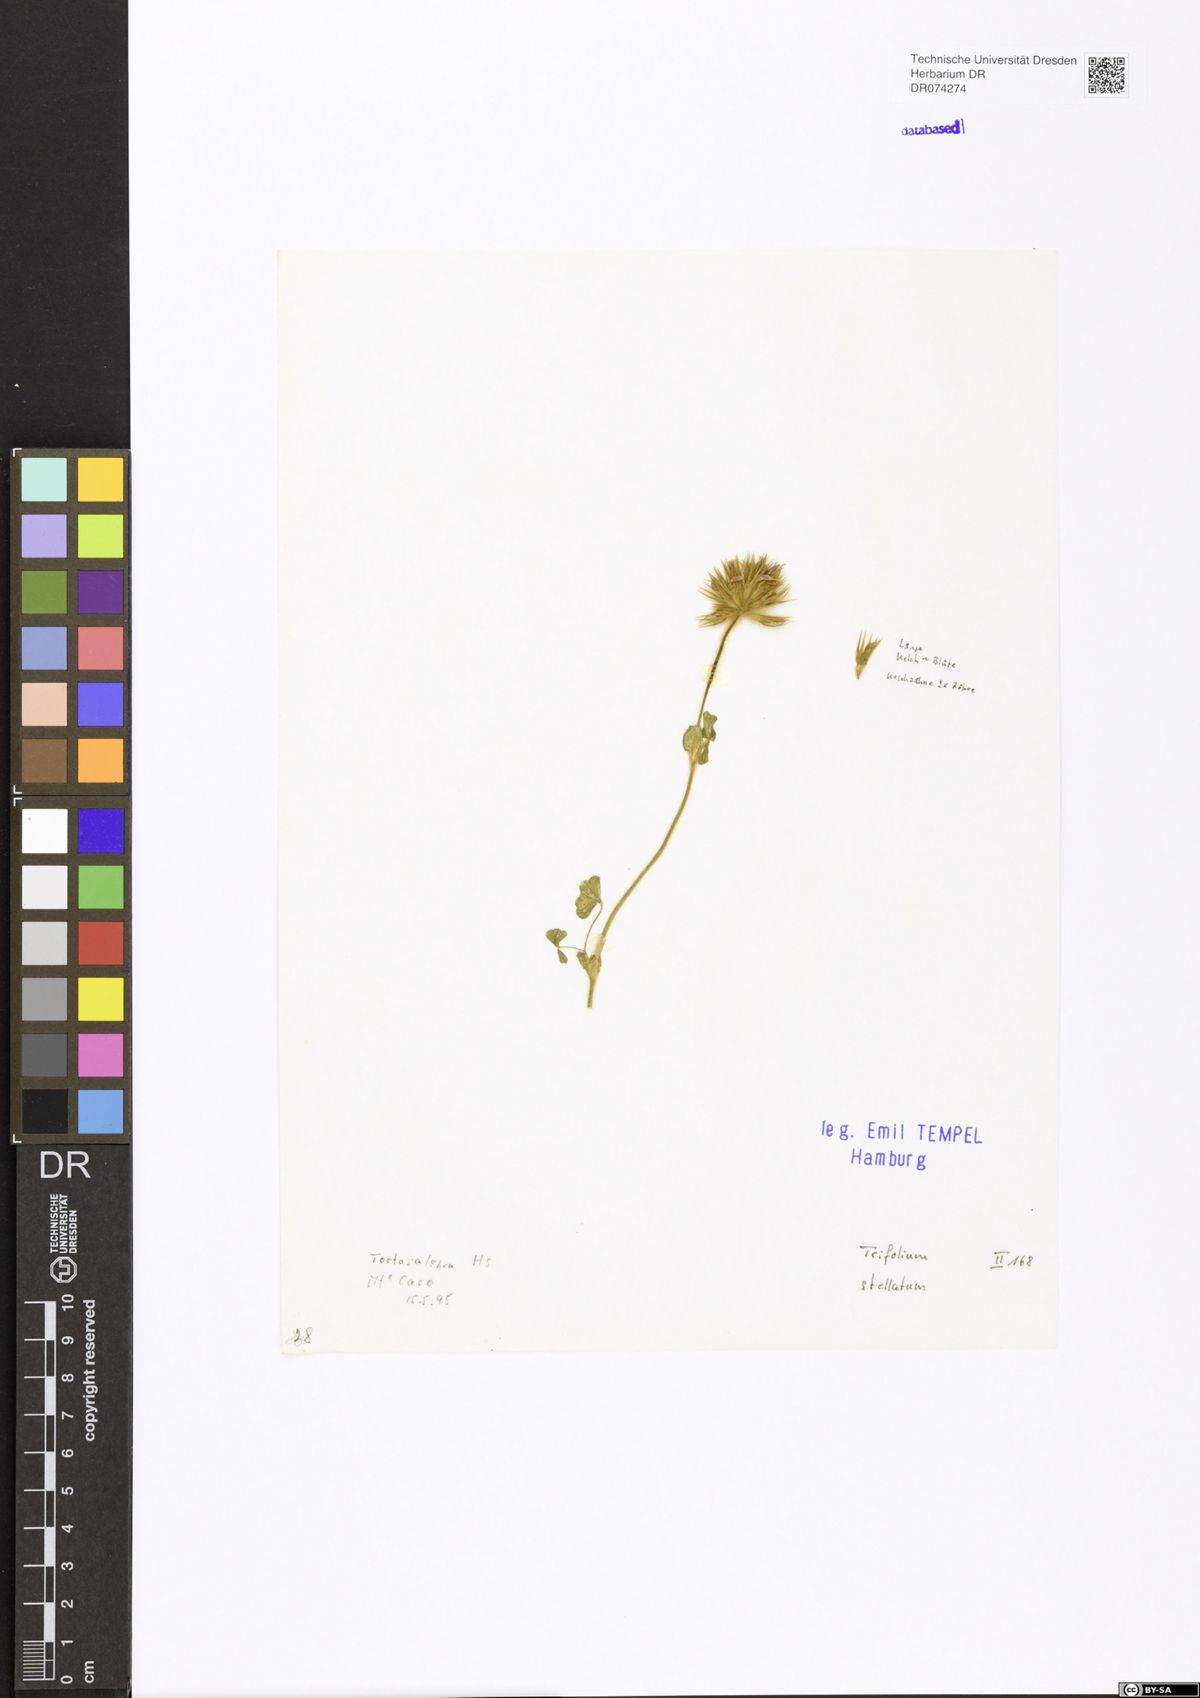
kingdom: Plantae
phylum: Tracheophyta
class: Magnoliopsida
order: Fabales
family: Fabaceae
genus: Trifolium
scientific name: Trifolium stellatum
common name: Starry clover
